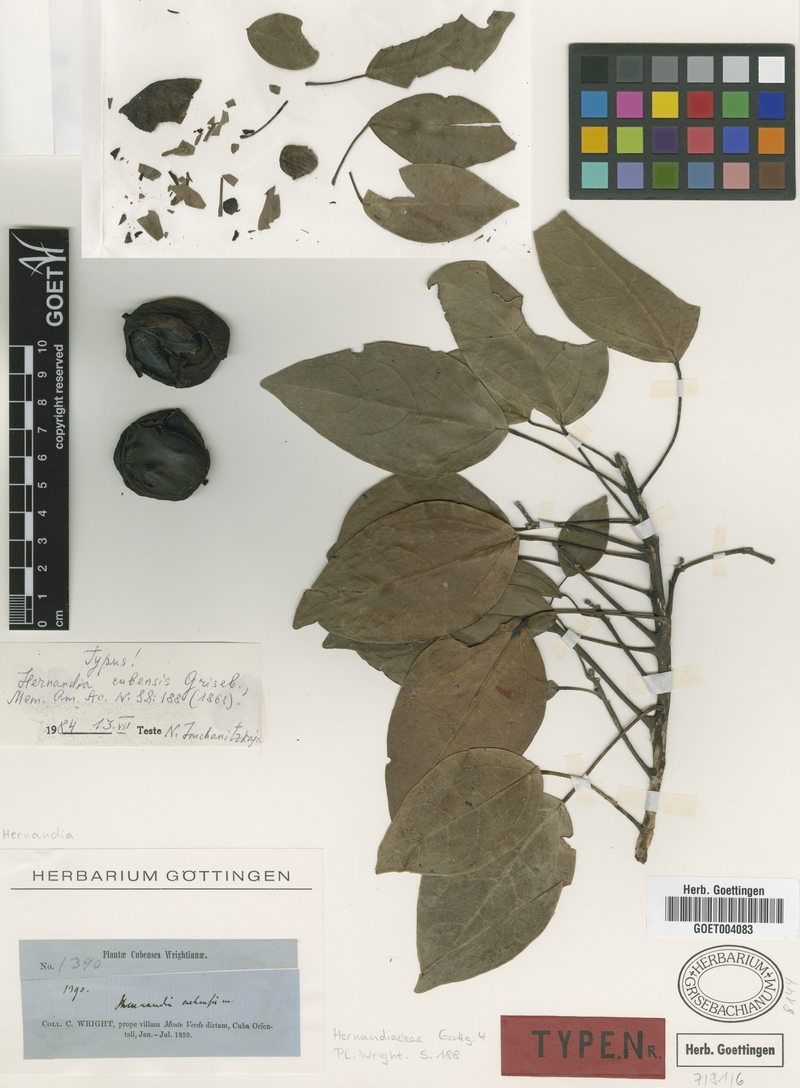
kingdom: Plantae
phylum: Tracheophyta
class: Magnoliopsida
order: Laurales
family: Hernandiaceae
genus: Hernandia
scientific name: Hernandia cubensis
